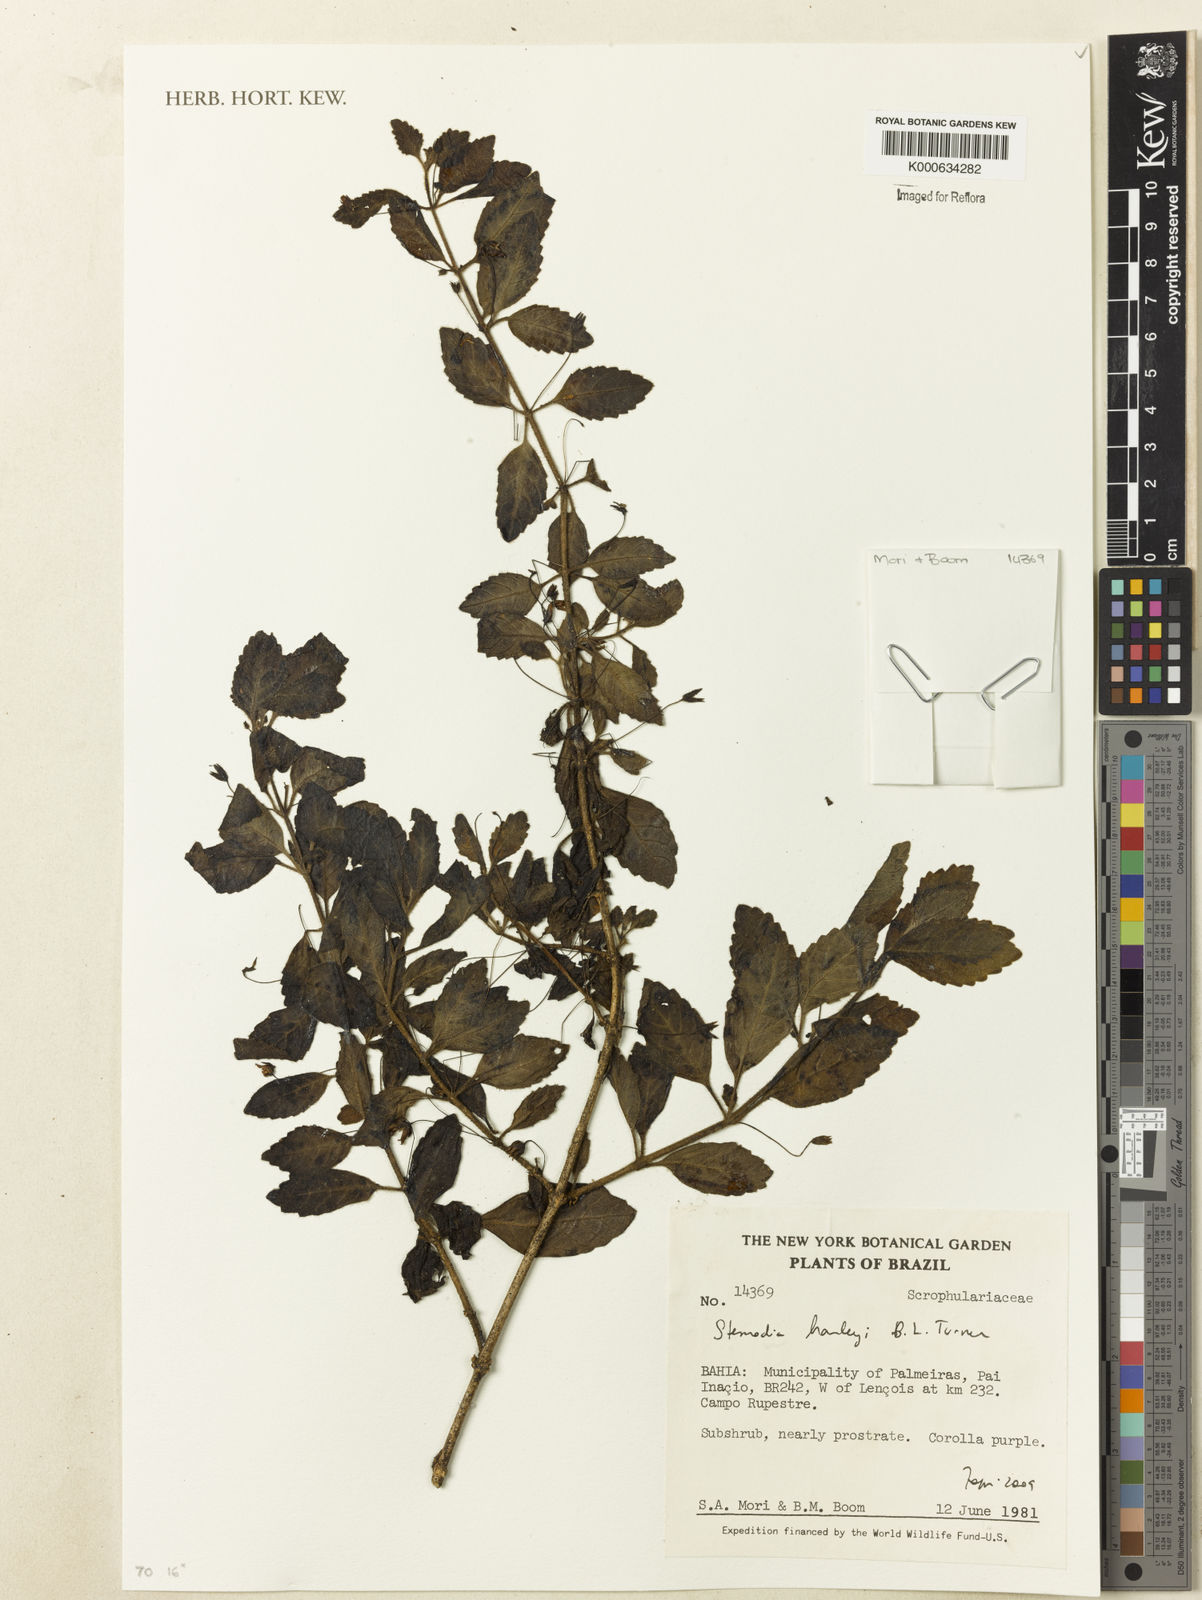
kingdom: Plantae
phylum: Tracheophyta
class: Magnoliopsida
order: Lamiales
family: Plantaginaceae
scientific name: Plantaginaceae
